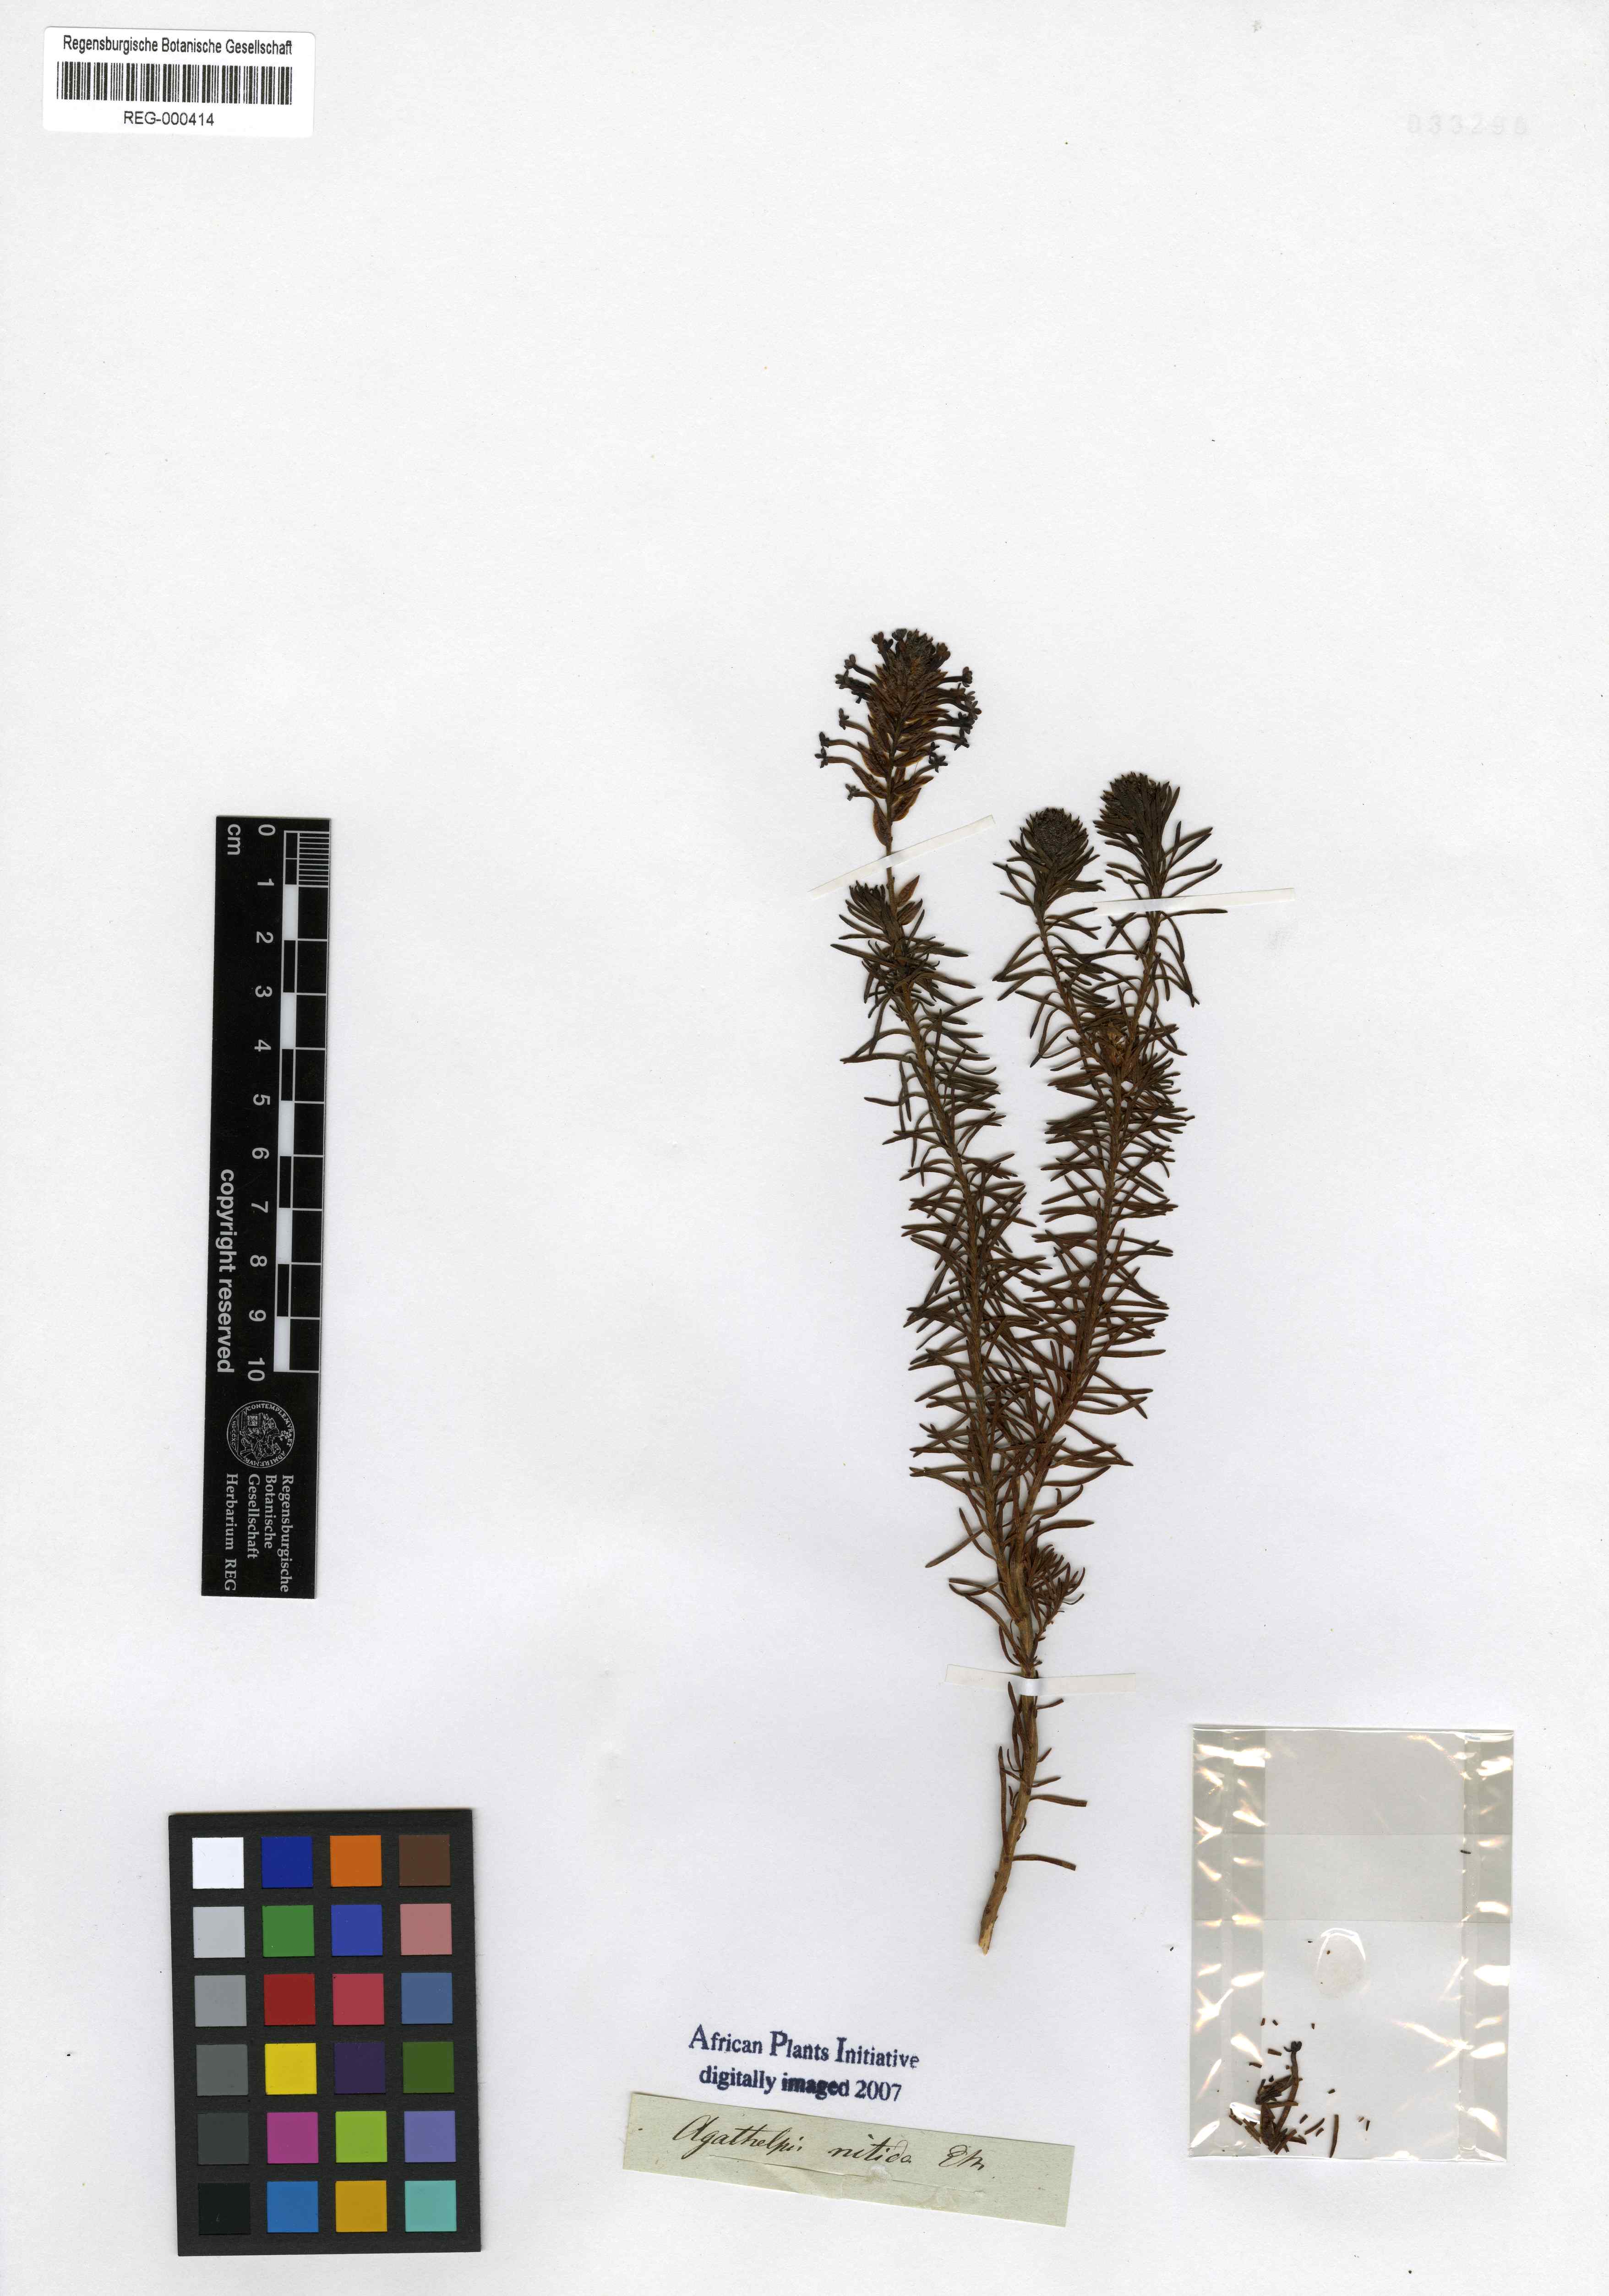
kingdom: Plantae
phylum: Tracheophyta
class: Magnoliopsida
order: Lamiales
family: Scrophulariaceae
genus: Microdon
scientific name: Microdon nitidus
